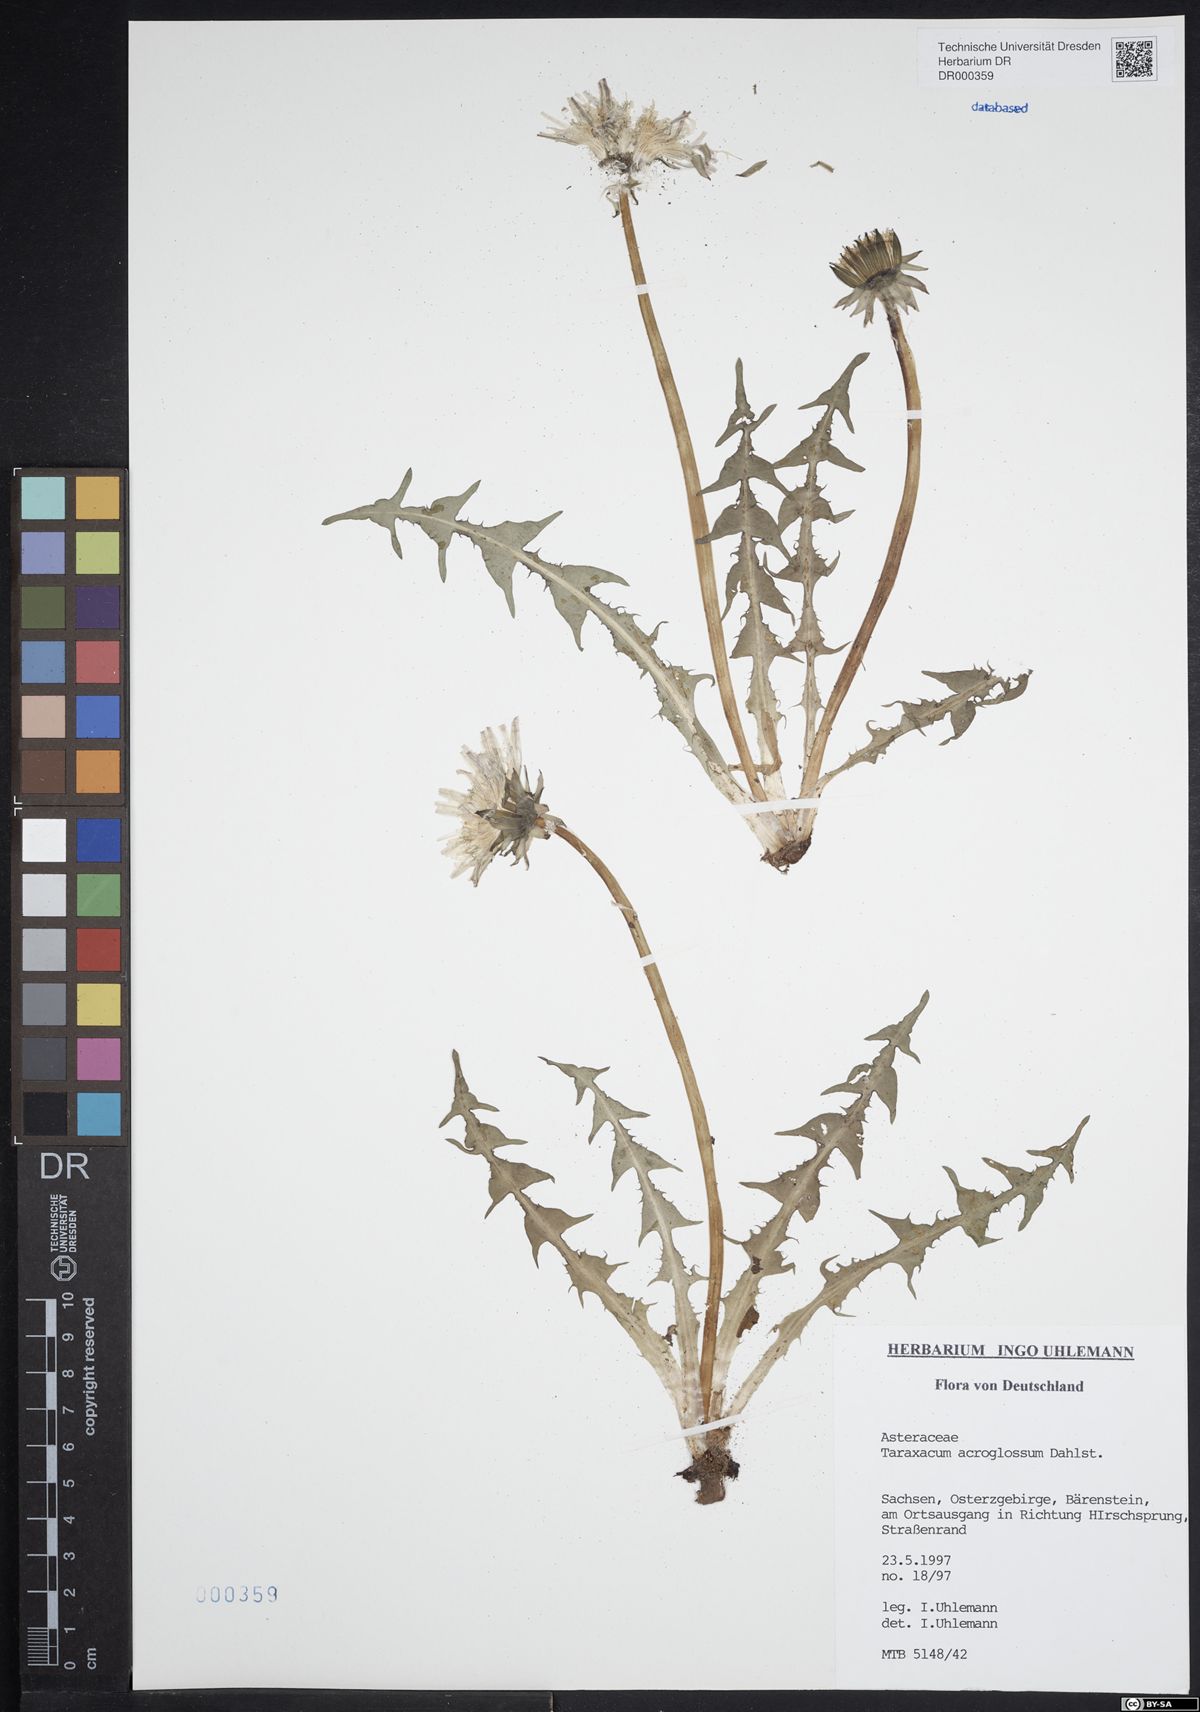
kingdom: Plantae
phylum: Tracheophyta
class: Magnoliopsida
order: Asterales
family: Asteraceae
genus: Taraxacum
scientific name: Taraxacum acroglossum
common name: Broad-bracted dandelion
